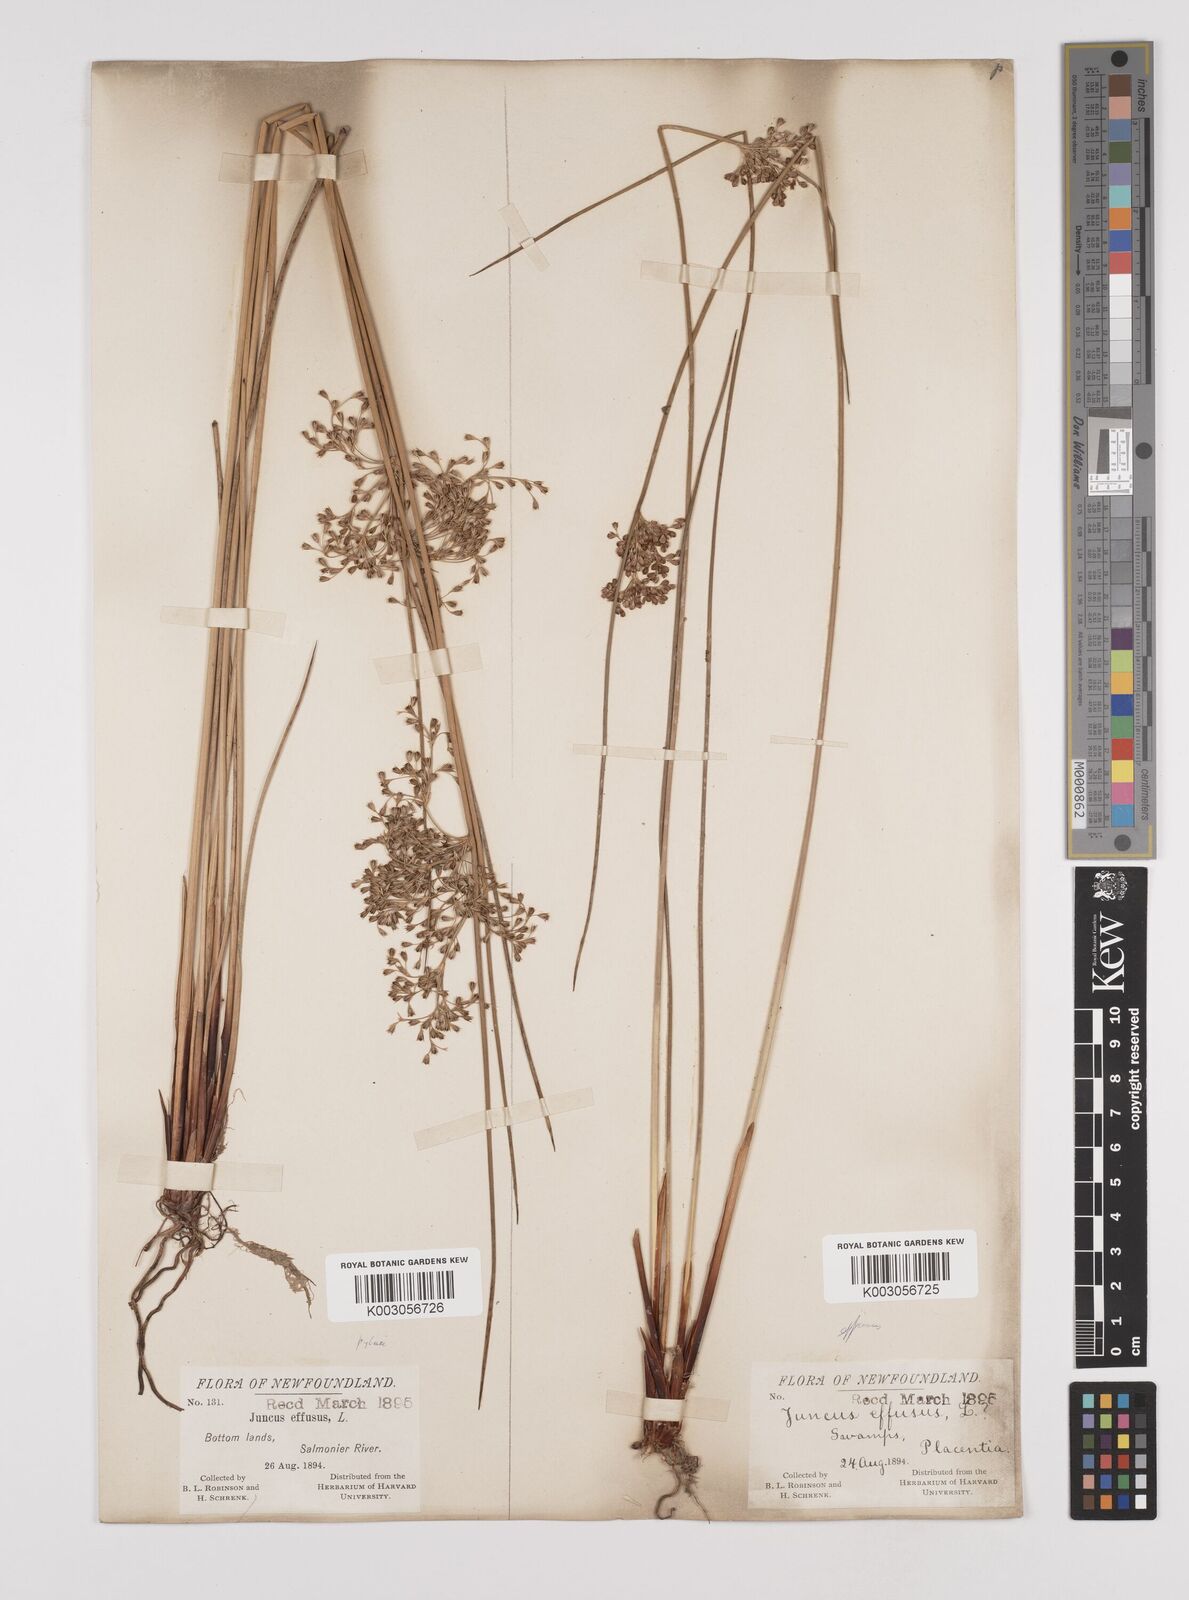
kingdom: Plantae
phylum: Tracheophyta
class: Liliopsida
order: Poales
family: Juncaceae
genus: Juncus
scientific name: Juncus pylaei
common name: Common rush
